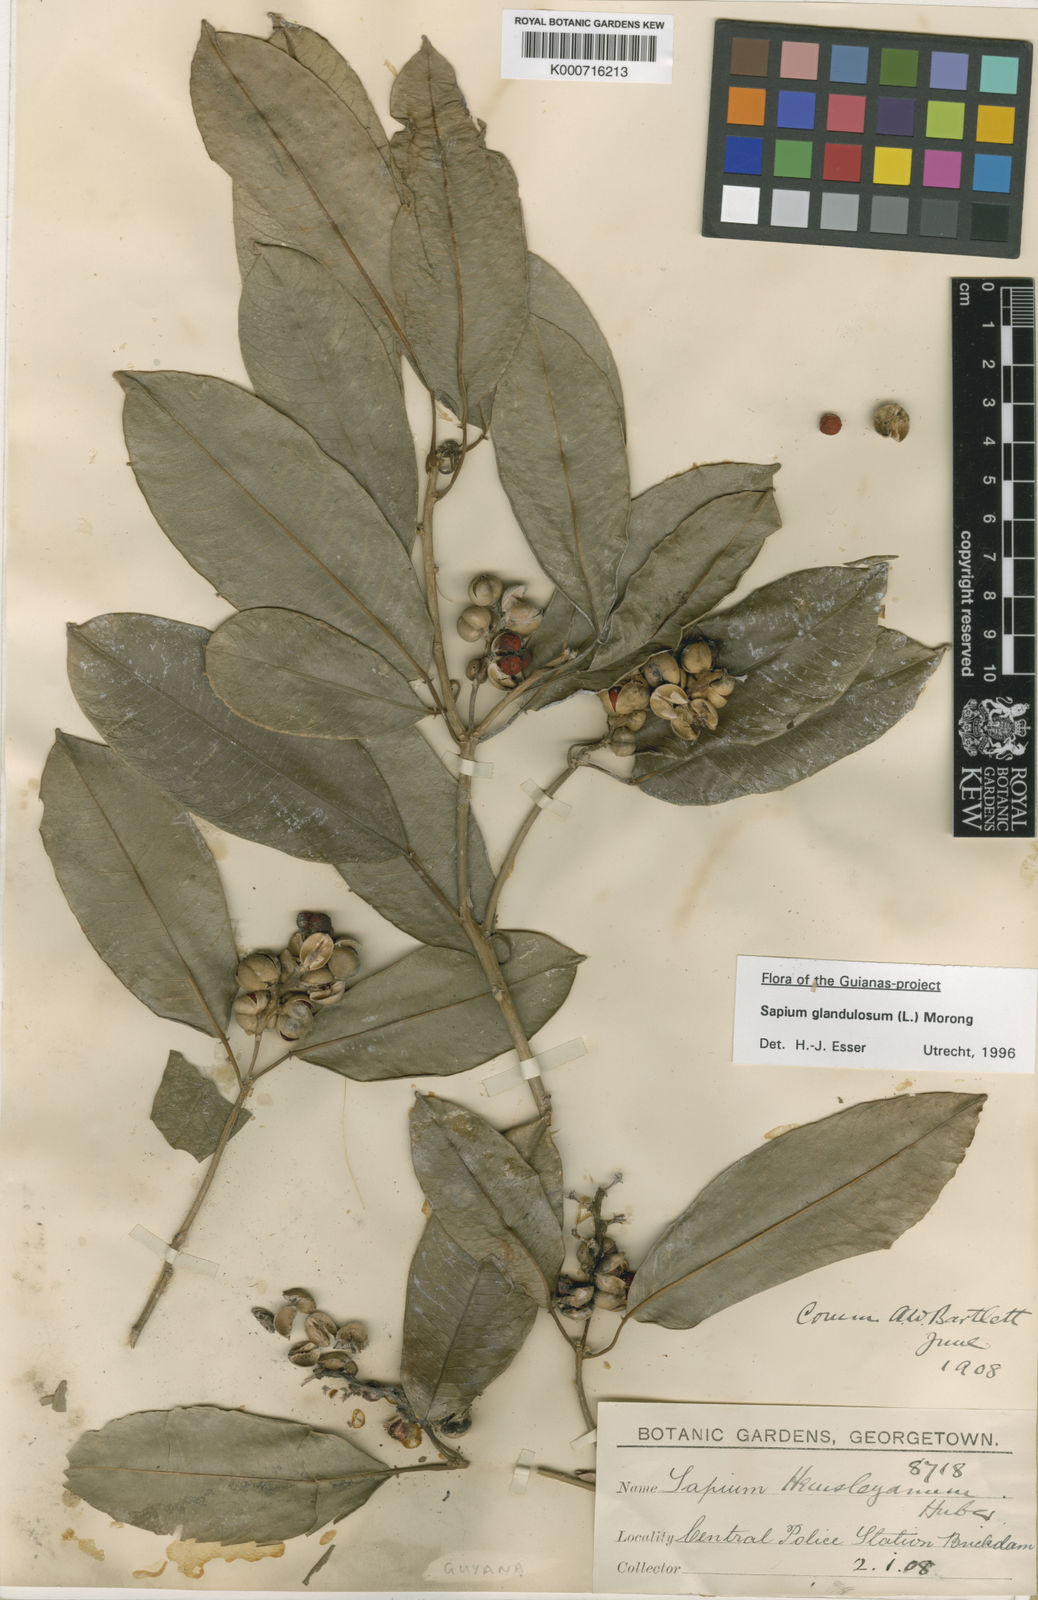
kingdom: Plantae
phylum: Tracheophyta
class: Magnoliopsida
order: Malpighiales
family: Euphorbiaceae
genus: Sapium
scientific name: Sapium glandulosum
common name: Milktree
